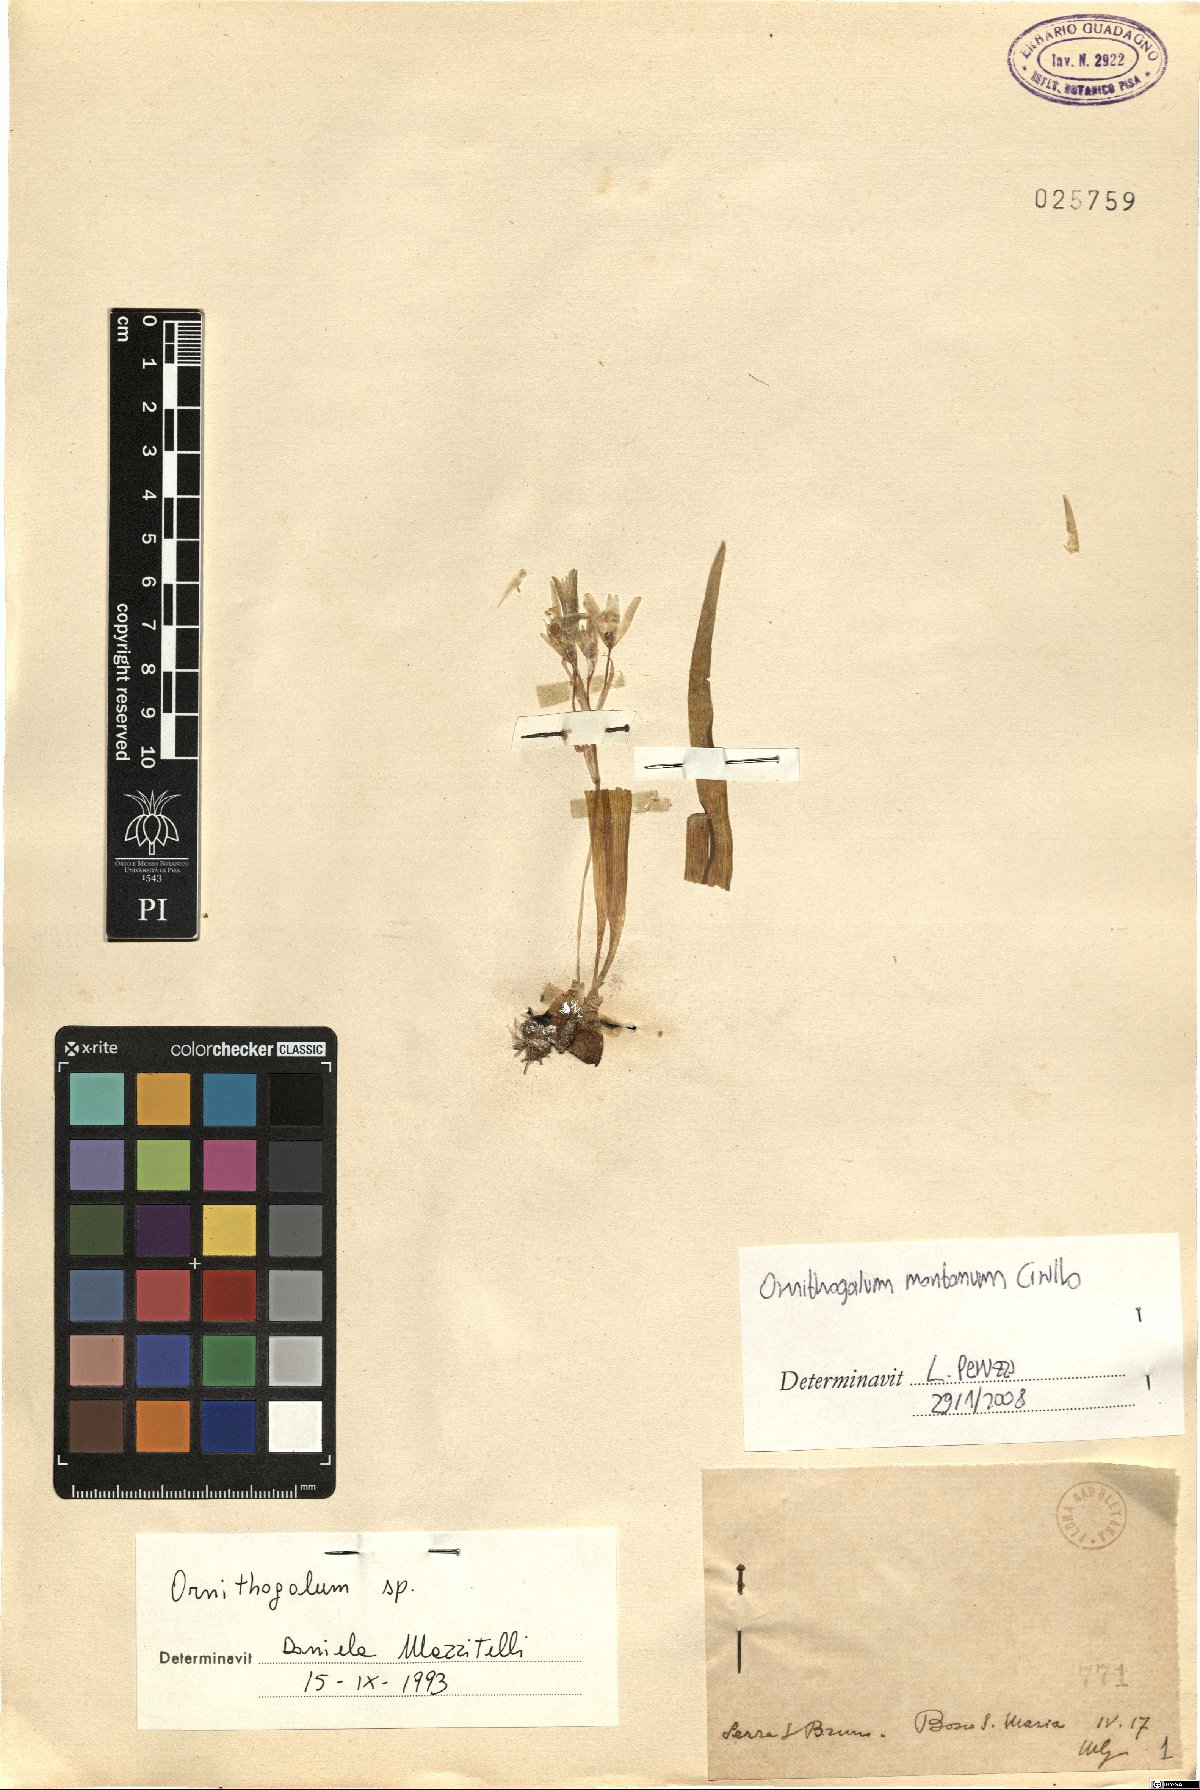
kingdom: Plantae
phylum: Tracheophyta
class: Liliopsida
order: Asparagales
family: Asparagaceae
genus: Ornithogalum
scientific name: Ornithogalum montanum
